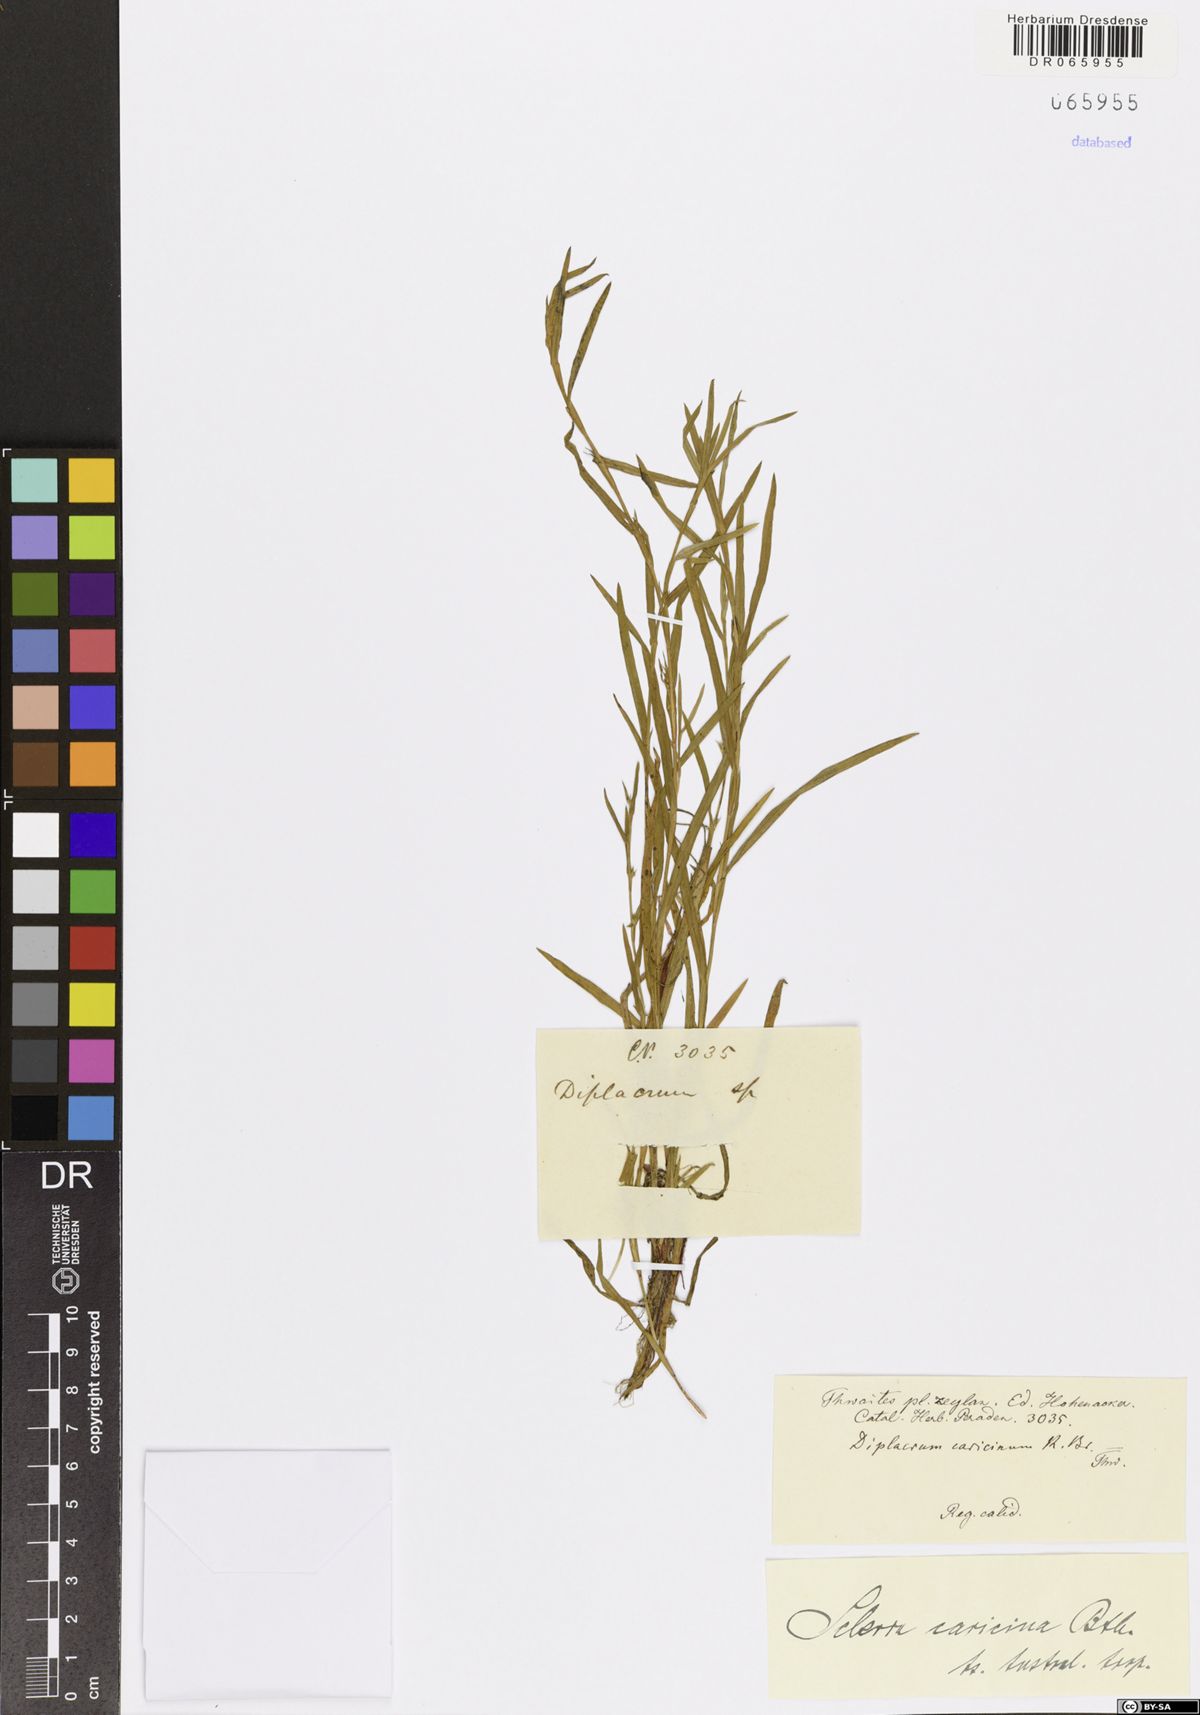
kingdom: Plantae
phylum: Tracheophyta
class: Liliopsida
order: Poales
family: Cyperaceae
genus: Diplacrum
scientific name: Diplacrum caricinum
